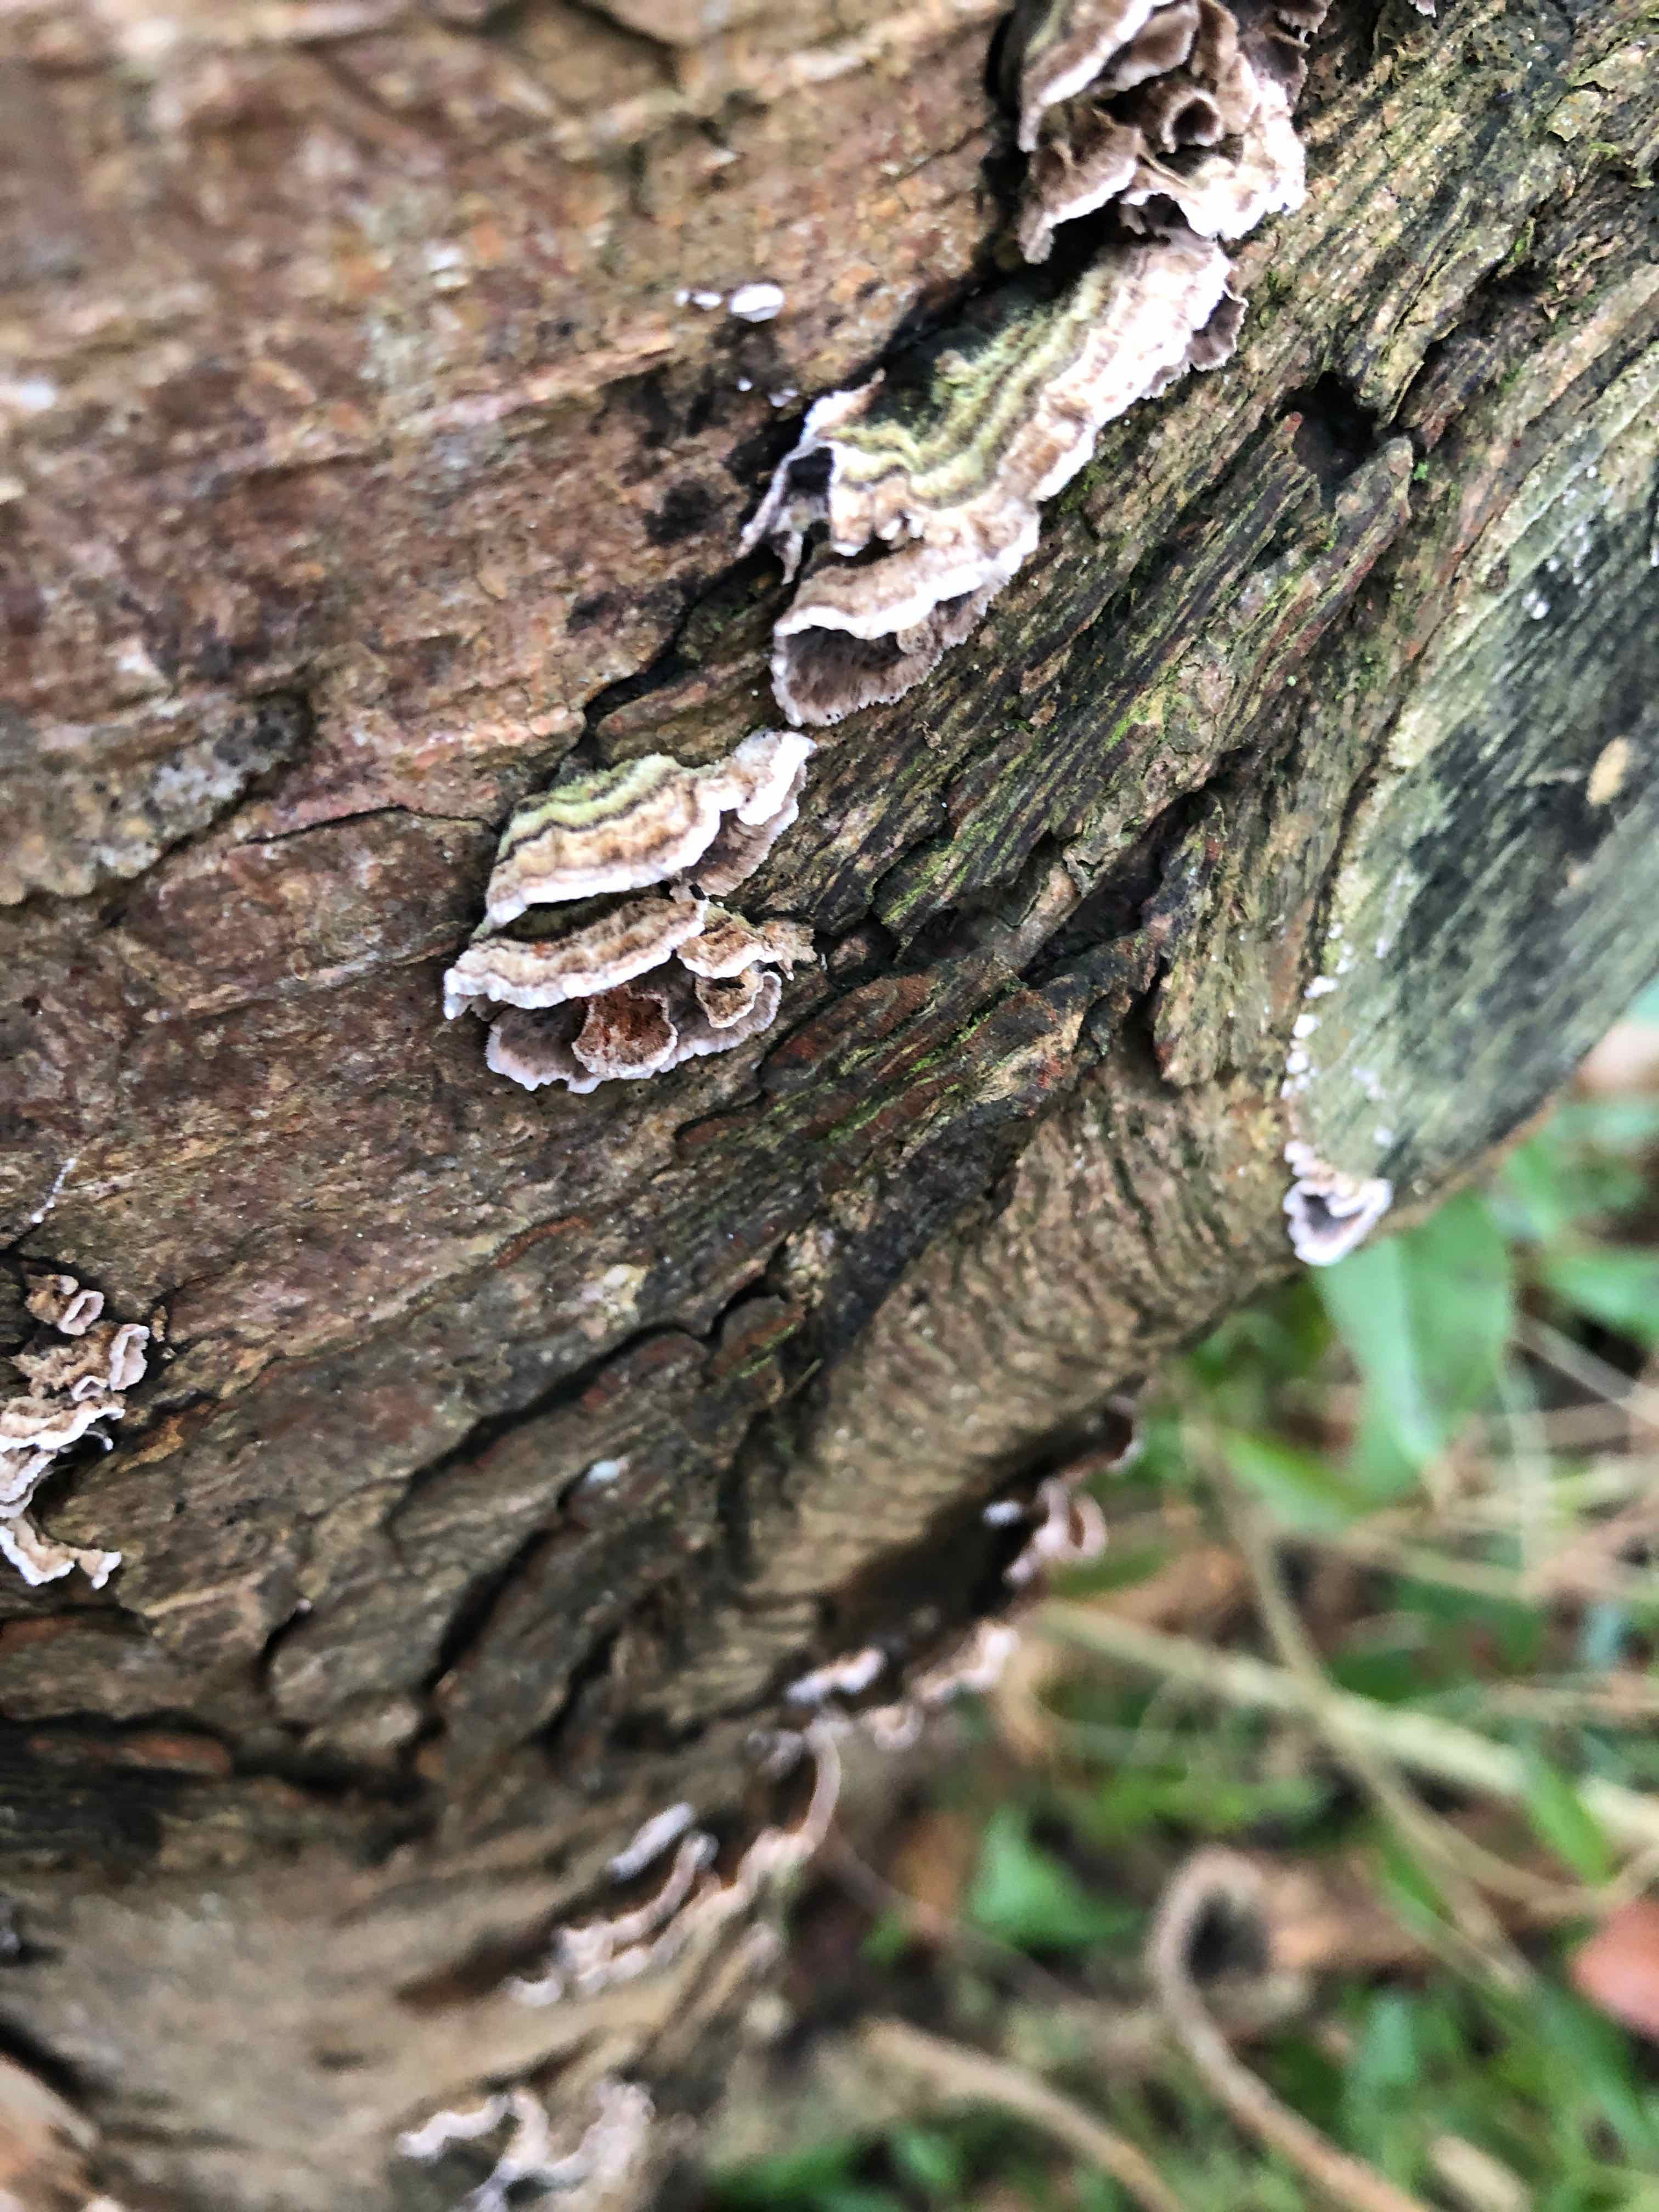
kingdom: Fungi
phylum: Basidiomycota
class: Agaricomycetes
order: Russulales
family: Stereaceae
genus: Stereum
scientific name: Stereum sanguinolentum
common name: blødende lædersvamp
